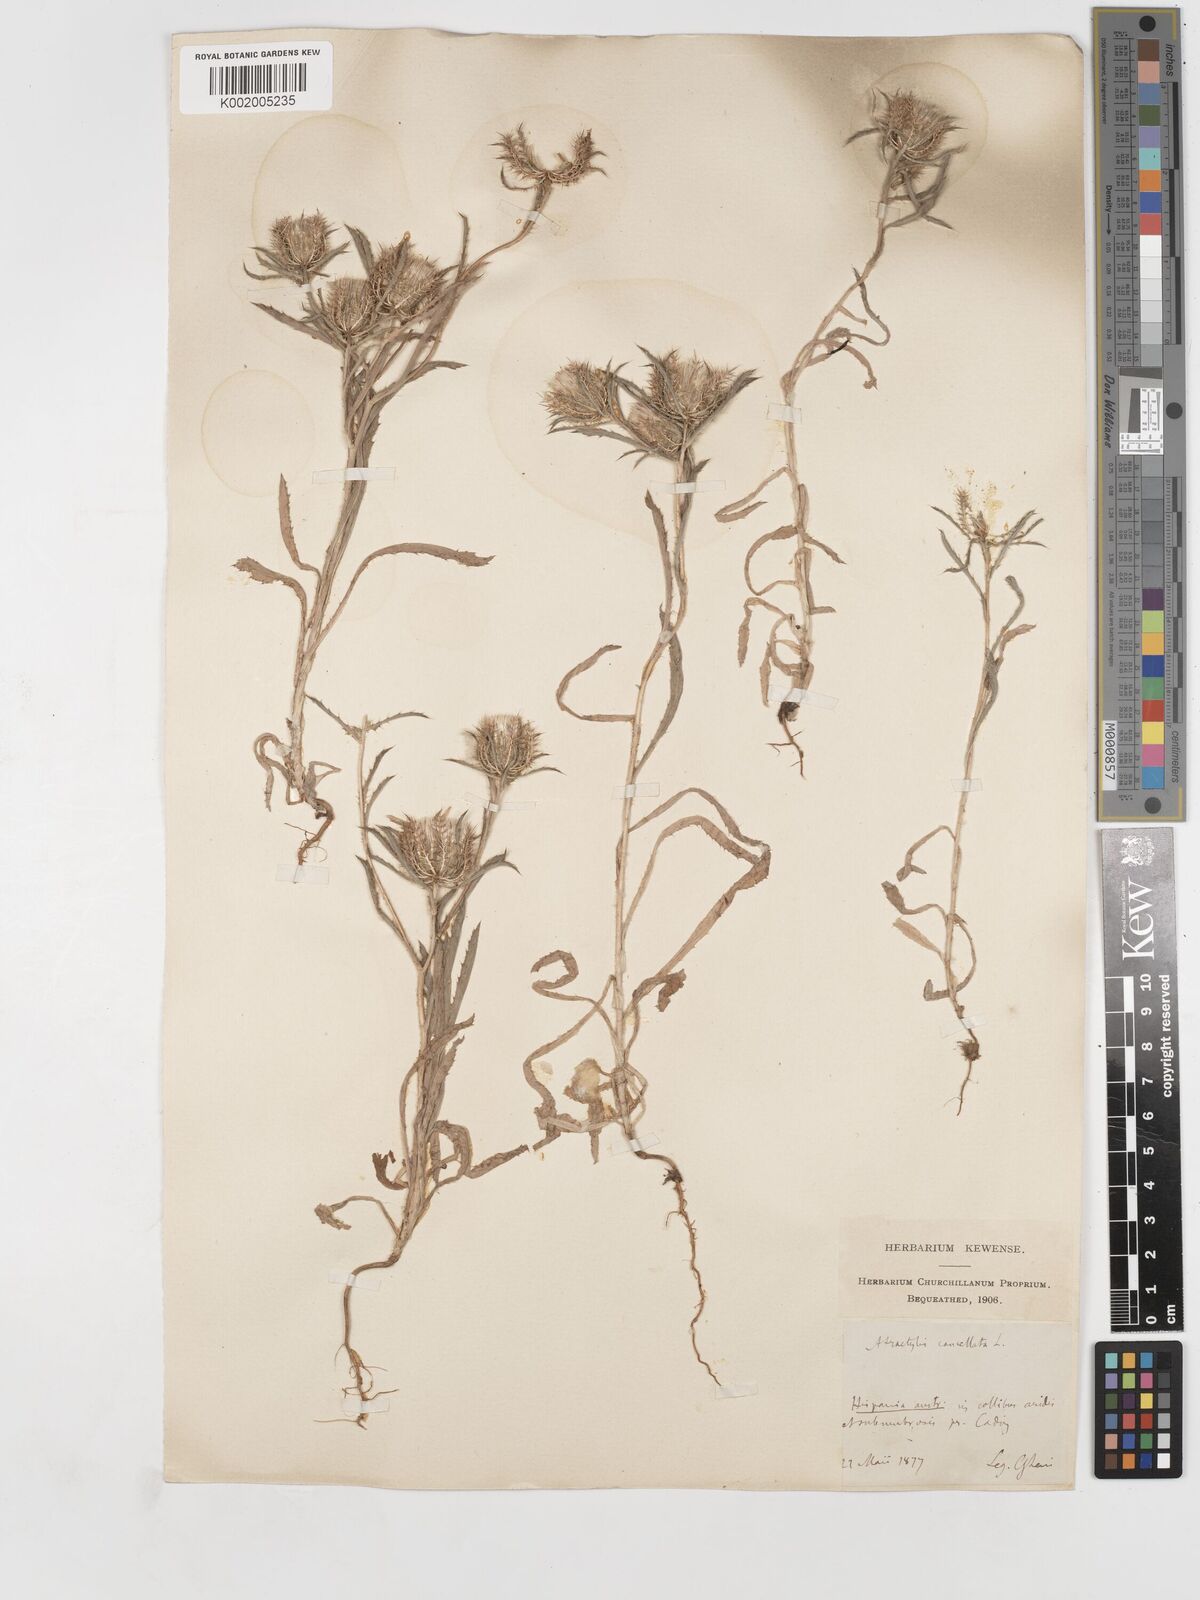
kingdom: Plantae
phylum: Tracheophyta
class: Magnoliopsida
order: Asterales
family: Asteraceae
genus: Atractylis
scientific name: Atractylis cancellata
